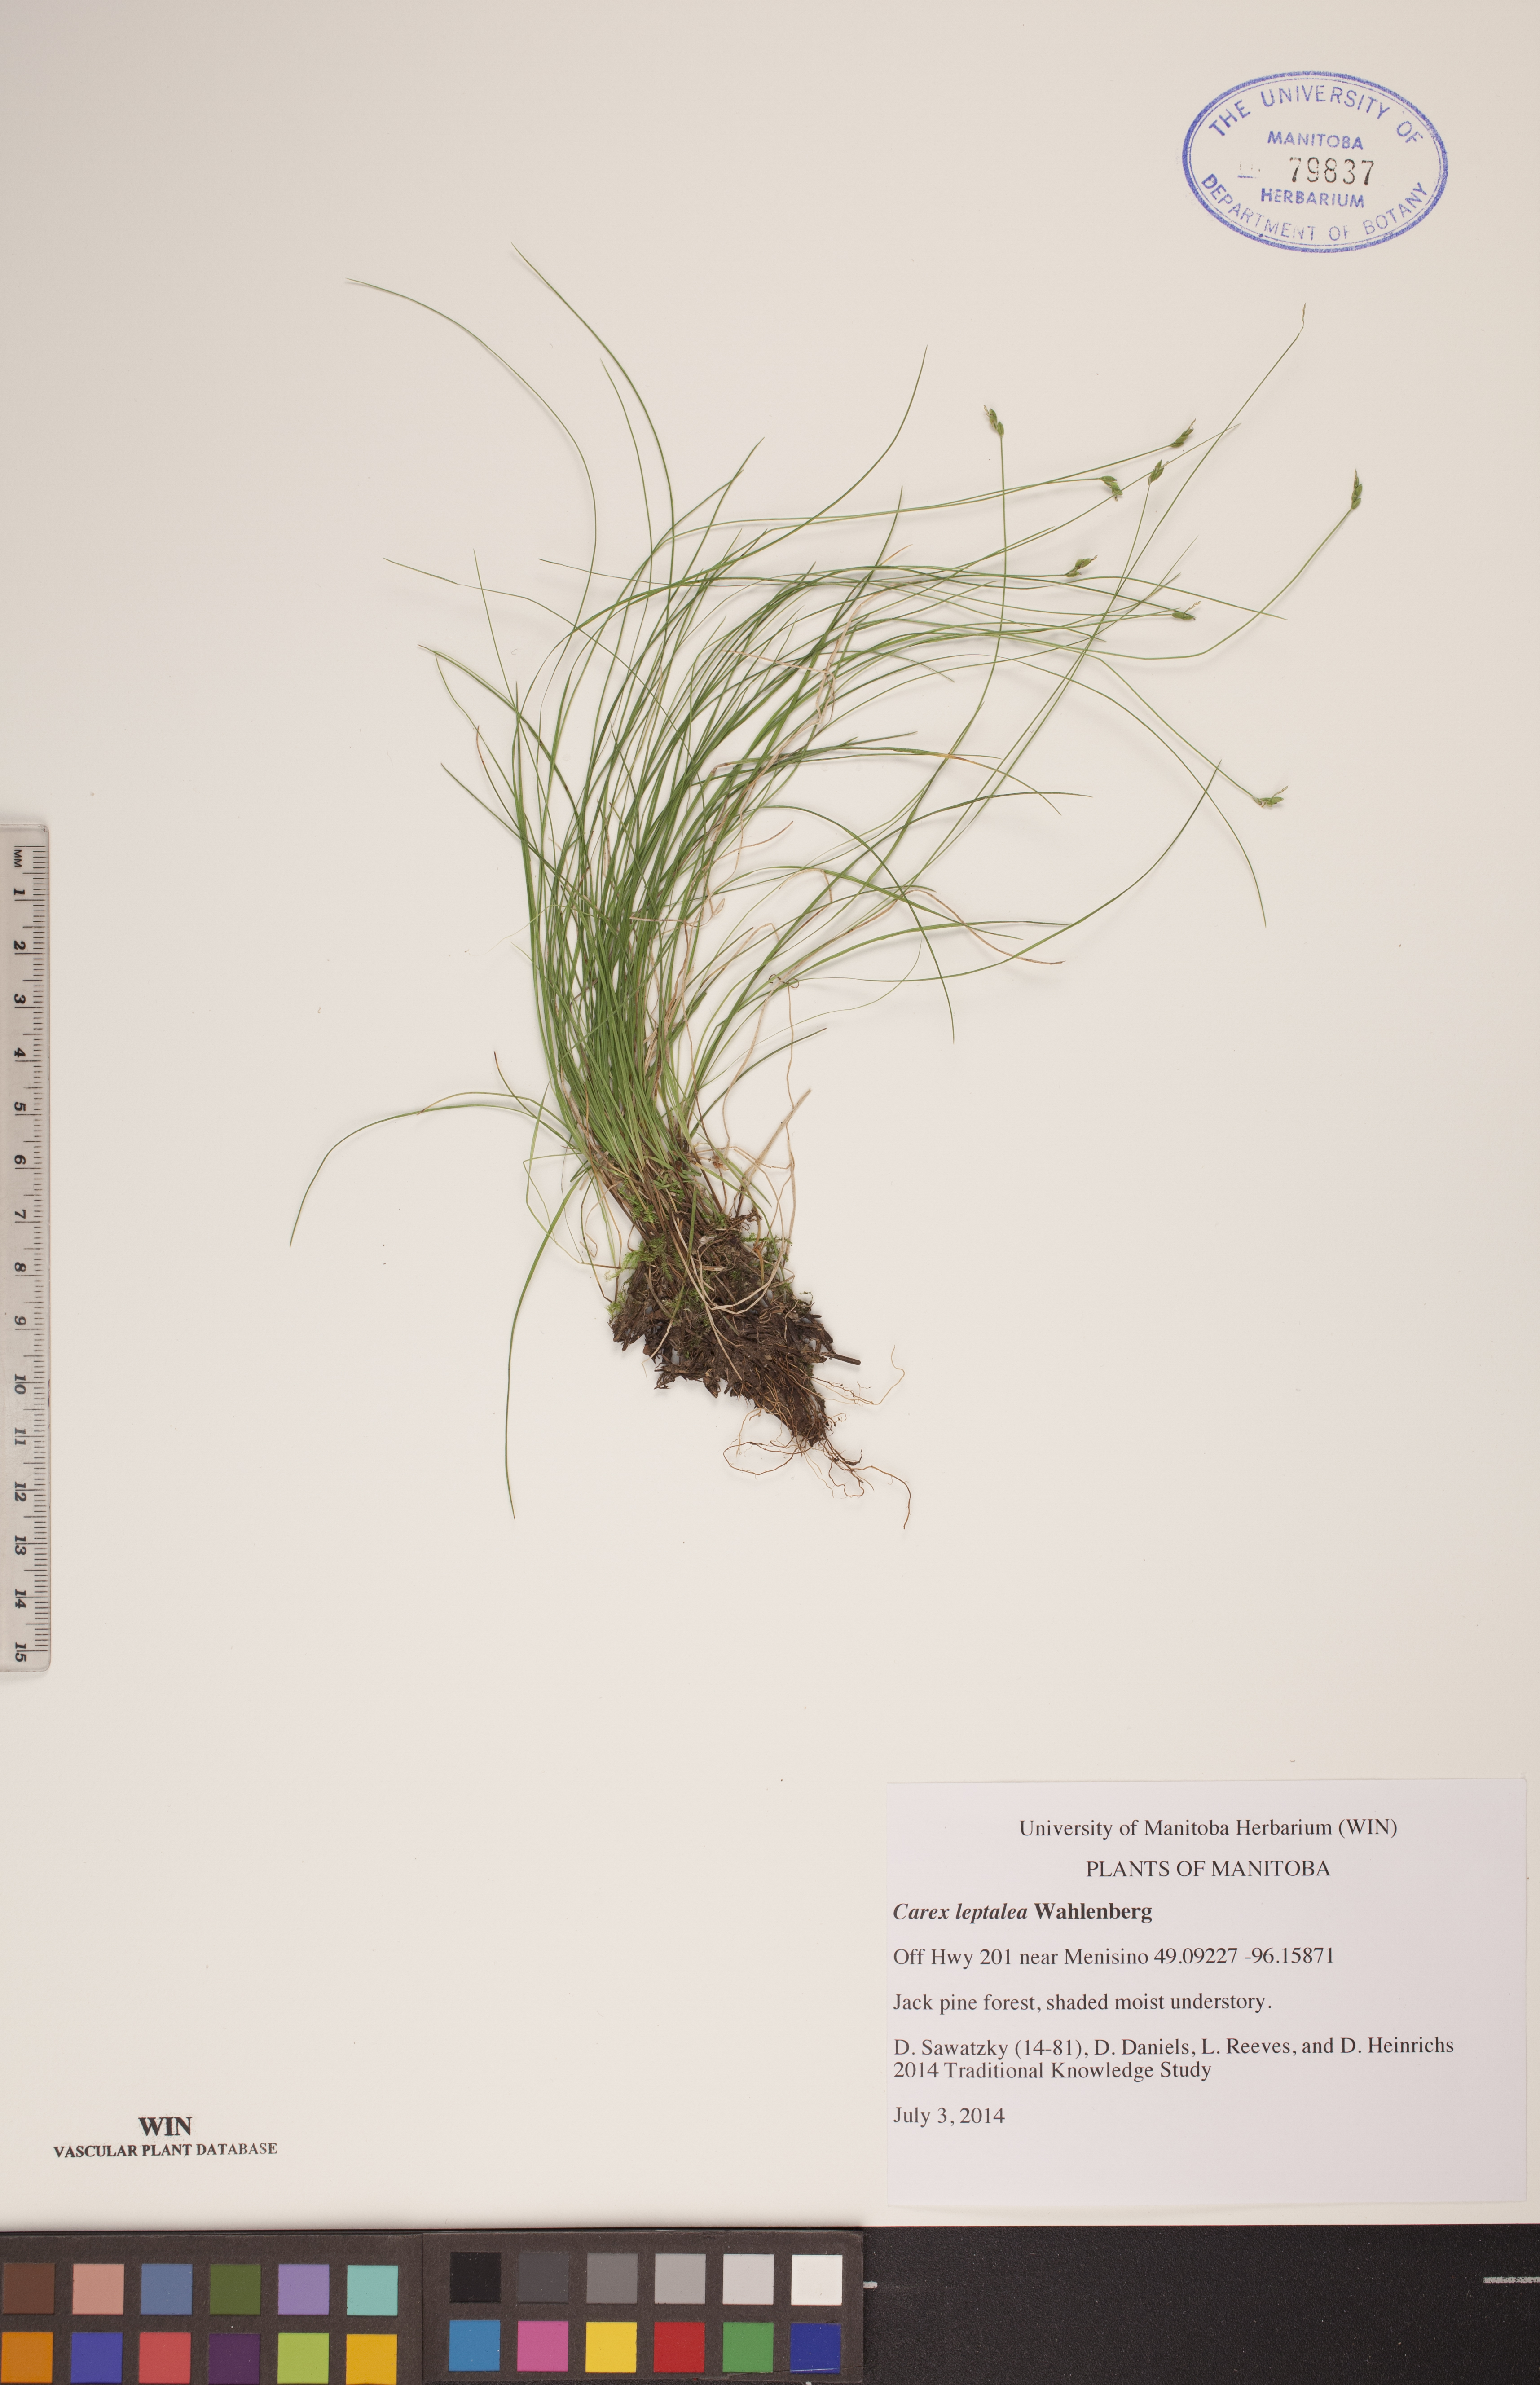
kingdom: Plantae
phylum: Tracheophyta
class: Liliopsida
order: Poales
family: Cyperaceae
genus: Carex
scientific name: Carex leptalea
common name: Bristly-stalked sedge
